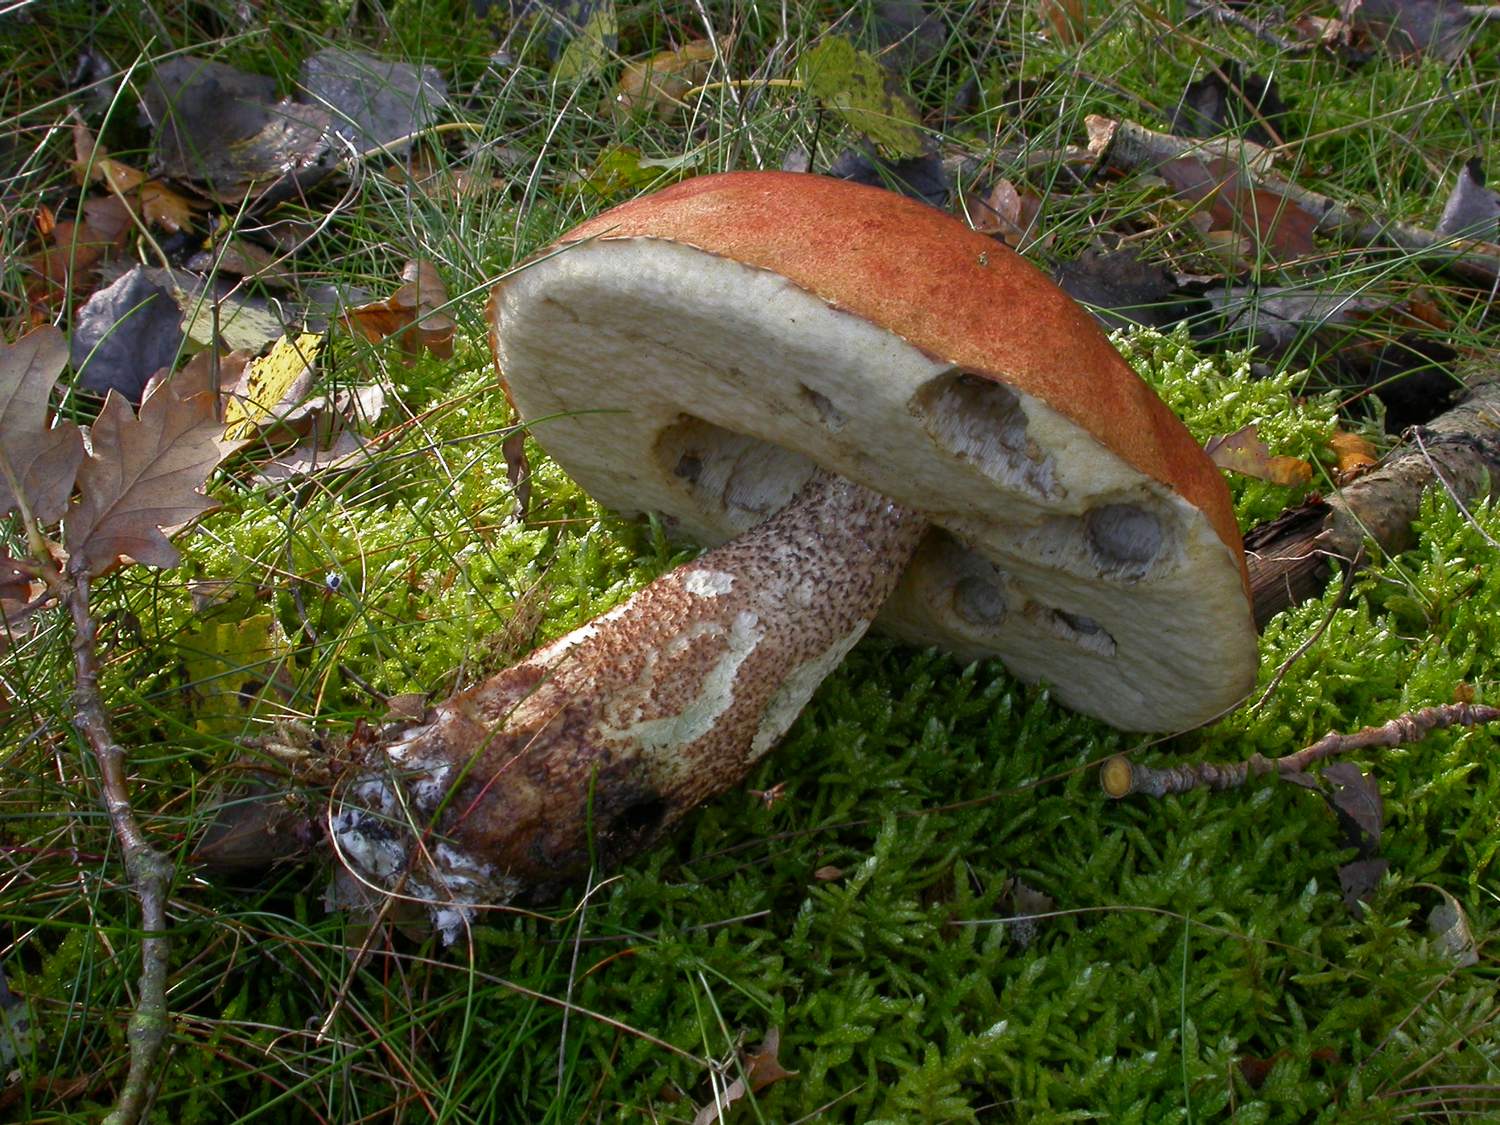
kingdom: Fungi
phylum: Basidiomycota
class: Agaricomycetes
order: Boletales
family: Boletaceae
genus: Leccinum
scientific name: Leccinum aurantiacum
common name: rustrød skælrørhat
